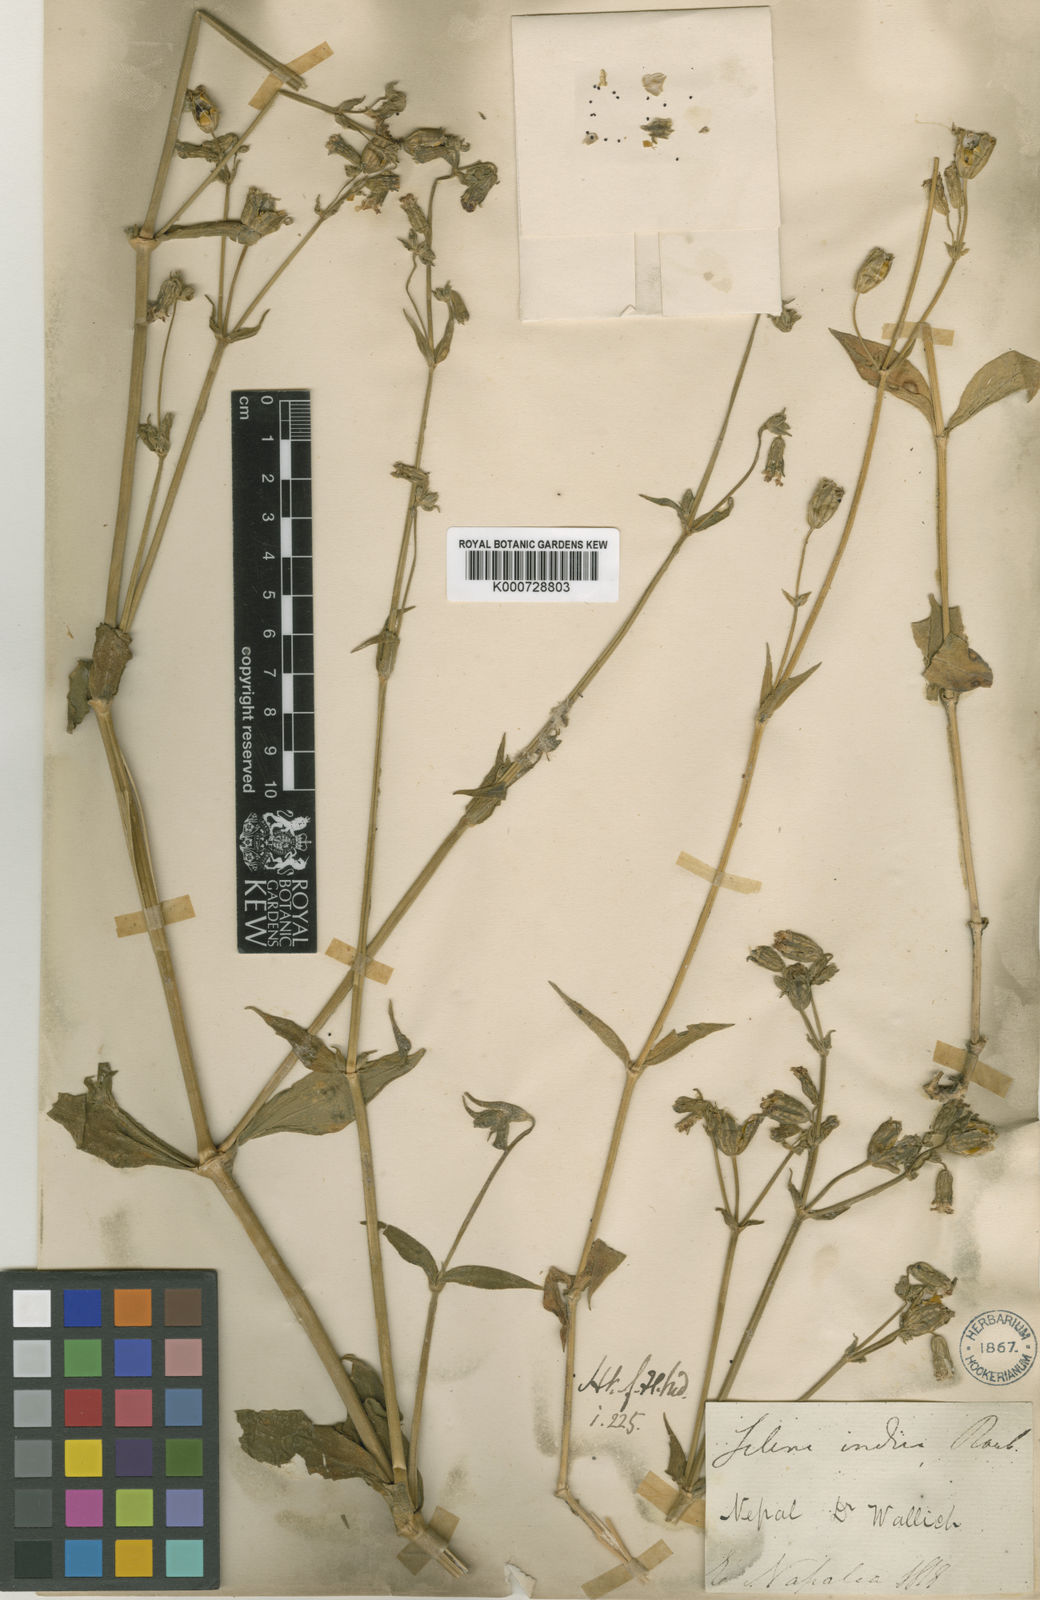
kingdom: Plantae
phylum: Tracheophyta
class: Magnoliopsida
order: Caryophyllales
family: Caryophyllaceae
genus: Silene
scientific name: Silene
